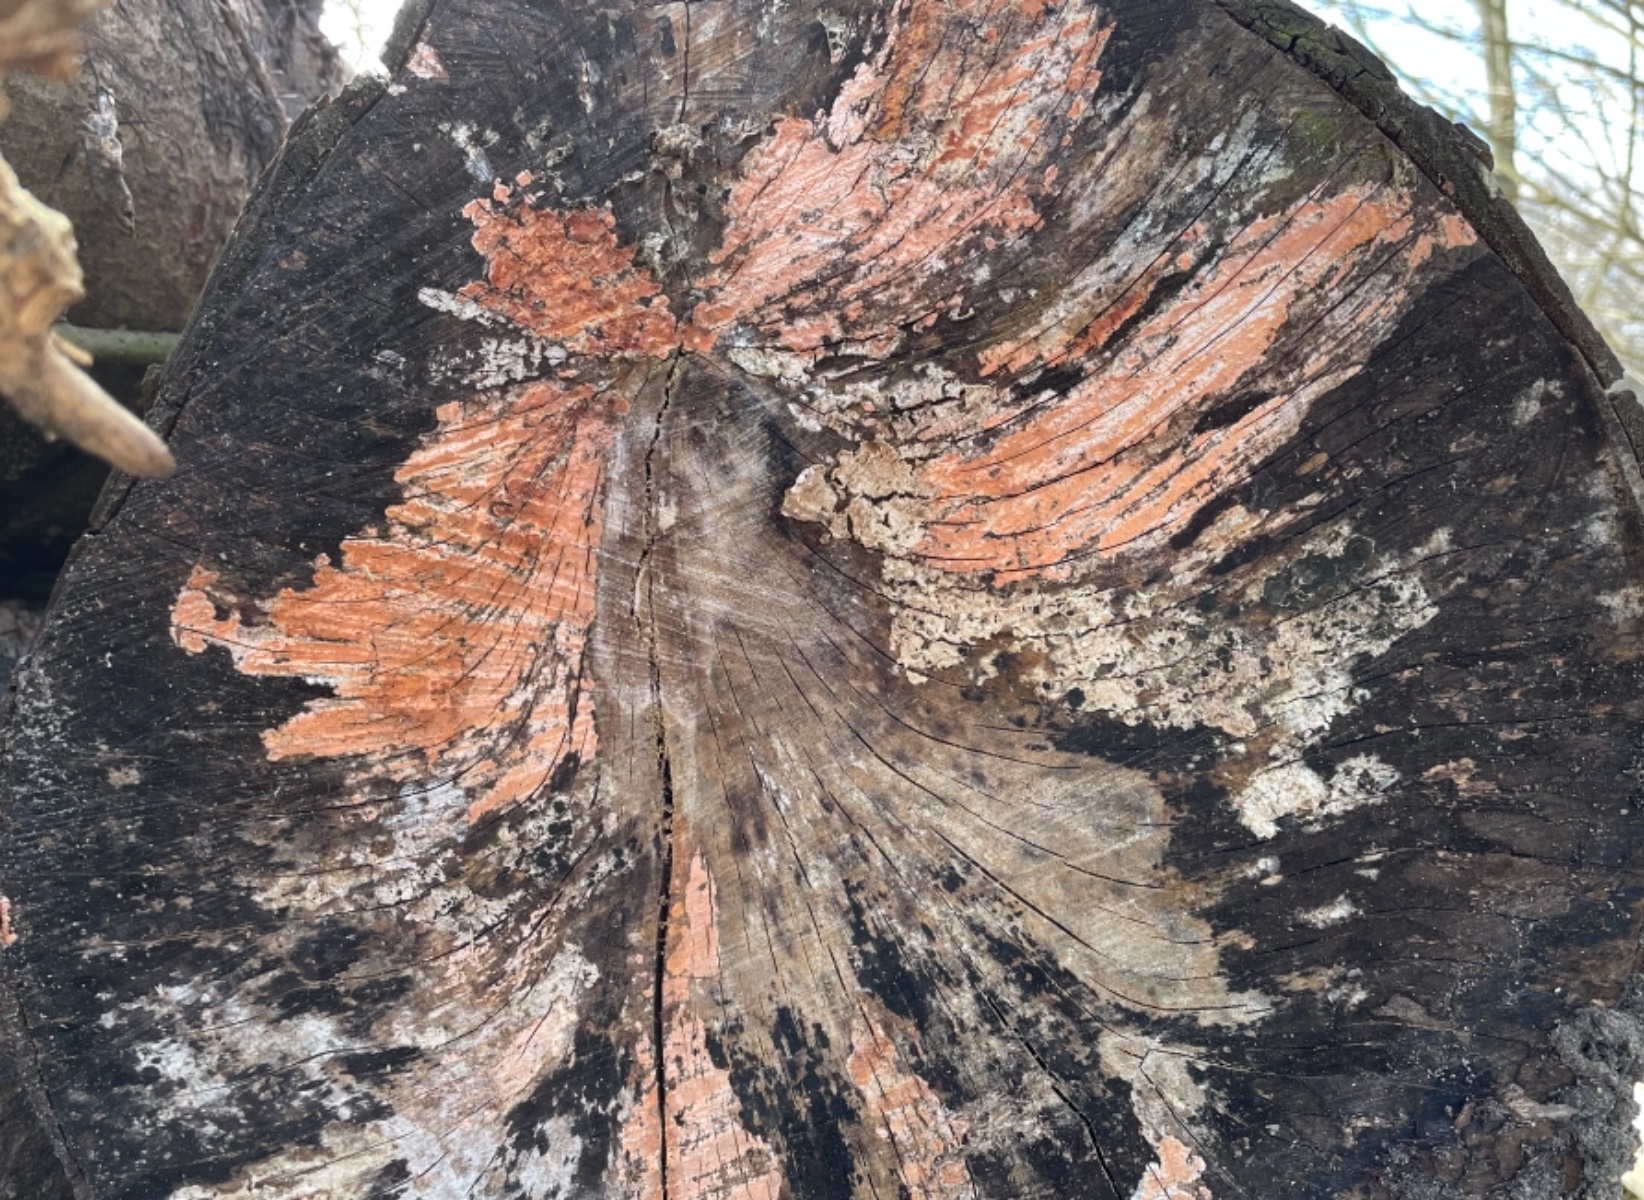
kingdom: Fungi
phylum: Basidiomycota
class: Agaricomycetes
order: Russulales
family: Peniophoraceae
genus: Peniophora
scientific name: Peniophora incarnata
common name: laksefarvet voksskind
